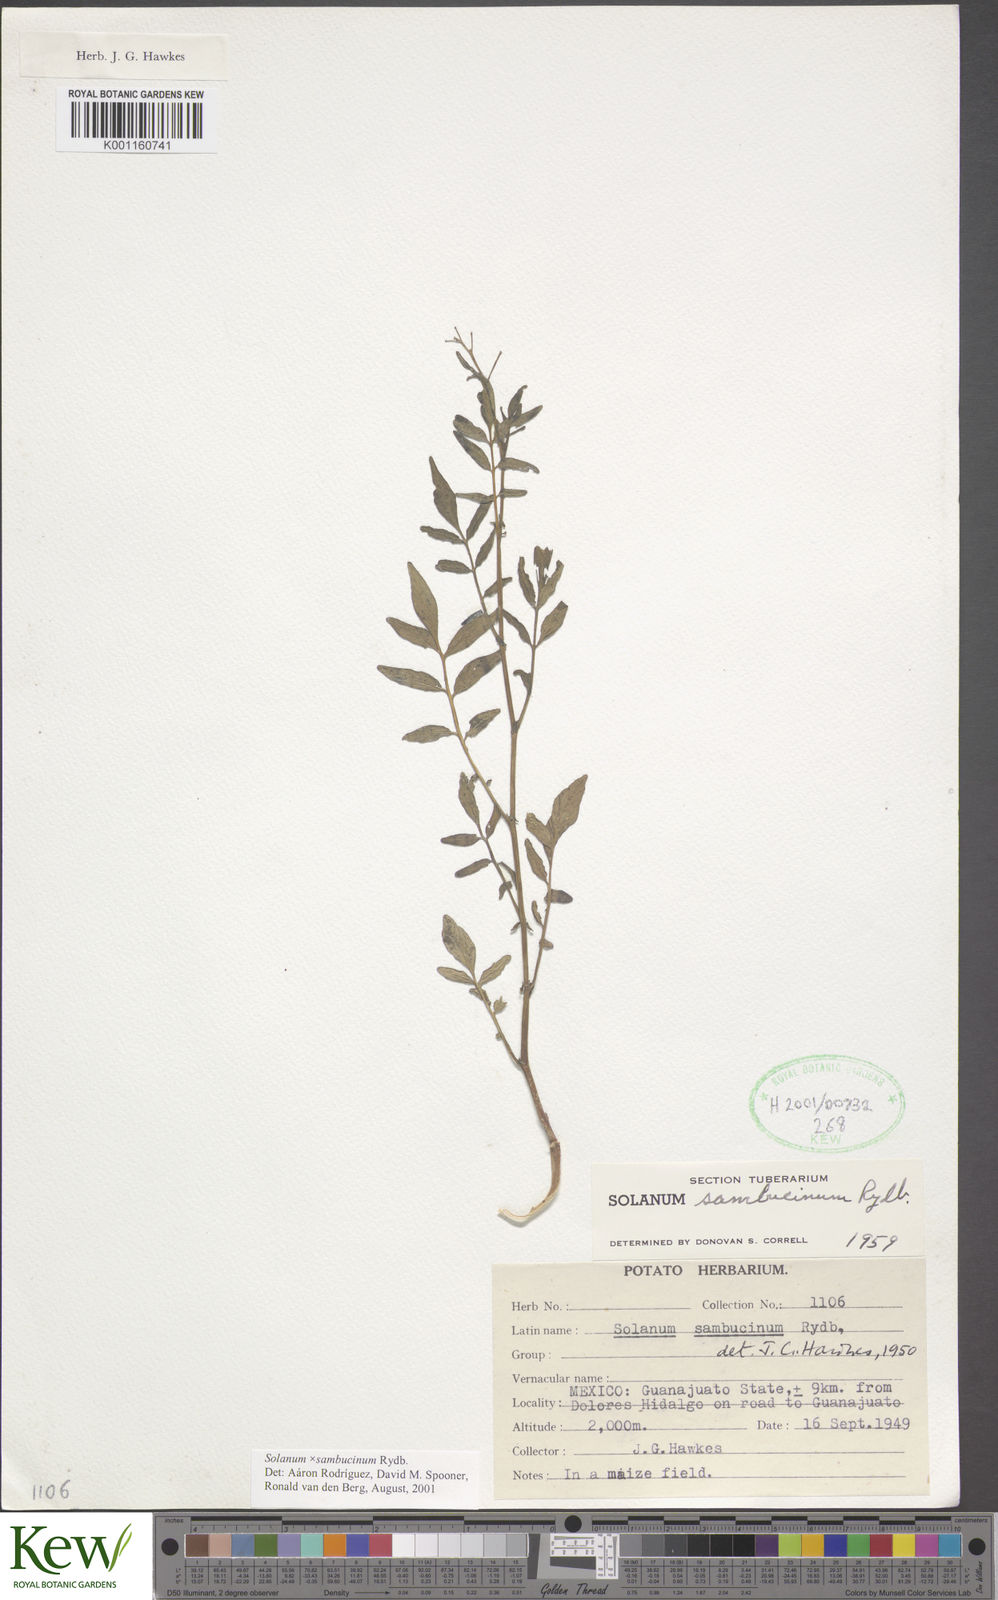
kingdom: Plantae
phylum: Tracheophyta
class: Magnoliopsida
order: Solanales
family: Solanaceae
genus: Solanum
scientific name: Solanum sambucinum
